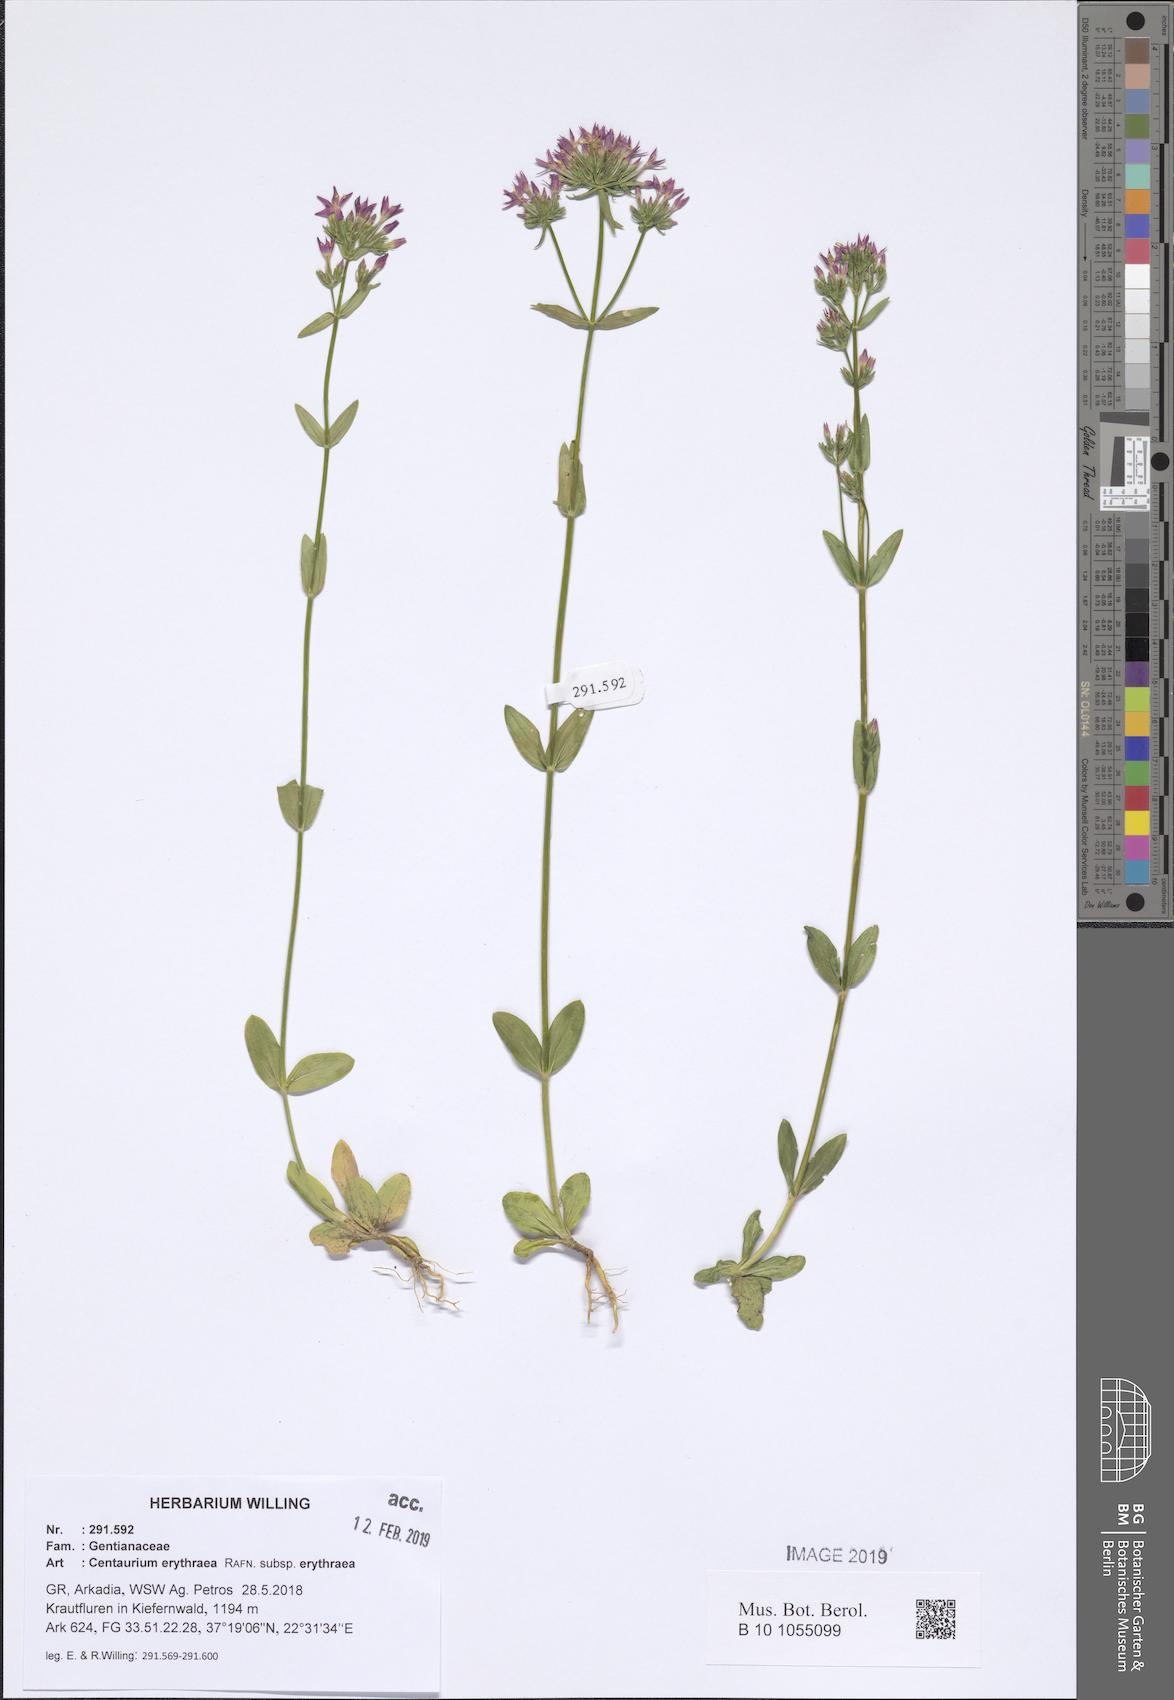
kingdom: Plantae
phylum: Tracheophyta
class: Magnoliopsida
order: Gentianales
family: Gentianaceae
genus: Centaurium
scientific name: Centaurium erythraea
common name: Common centaury
